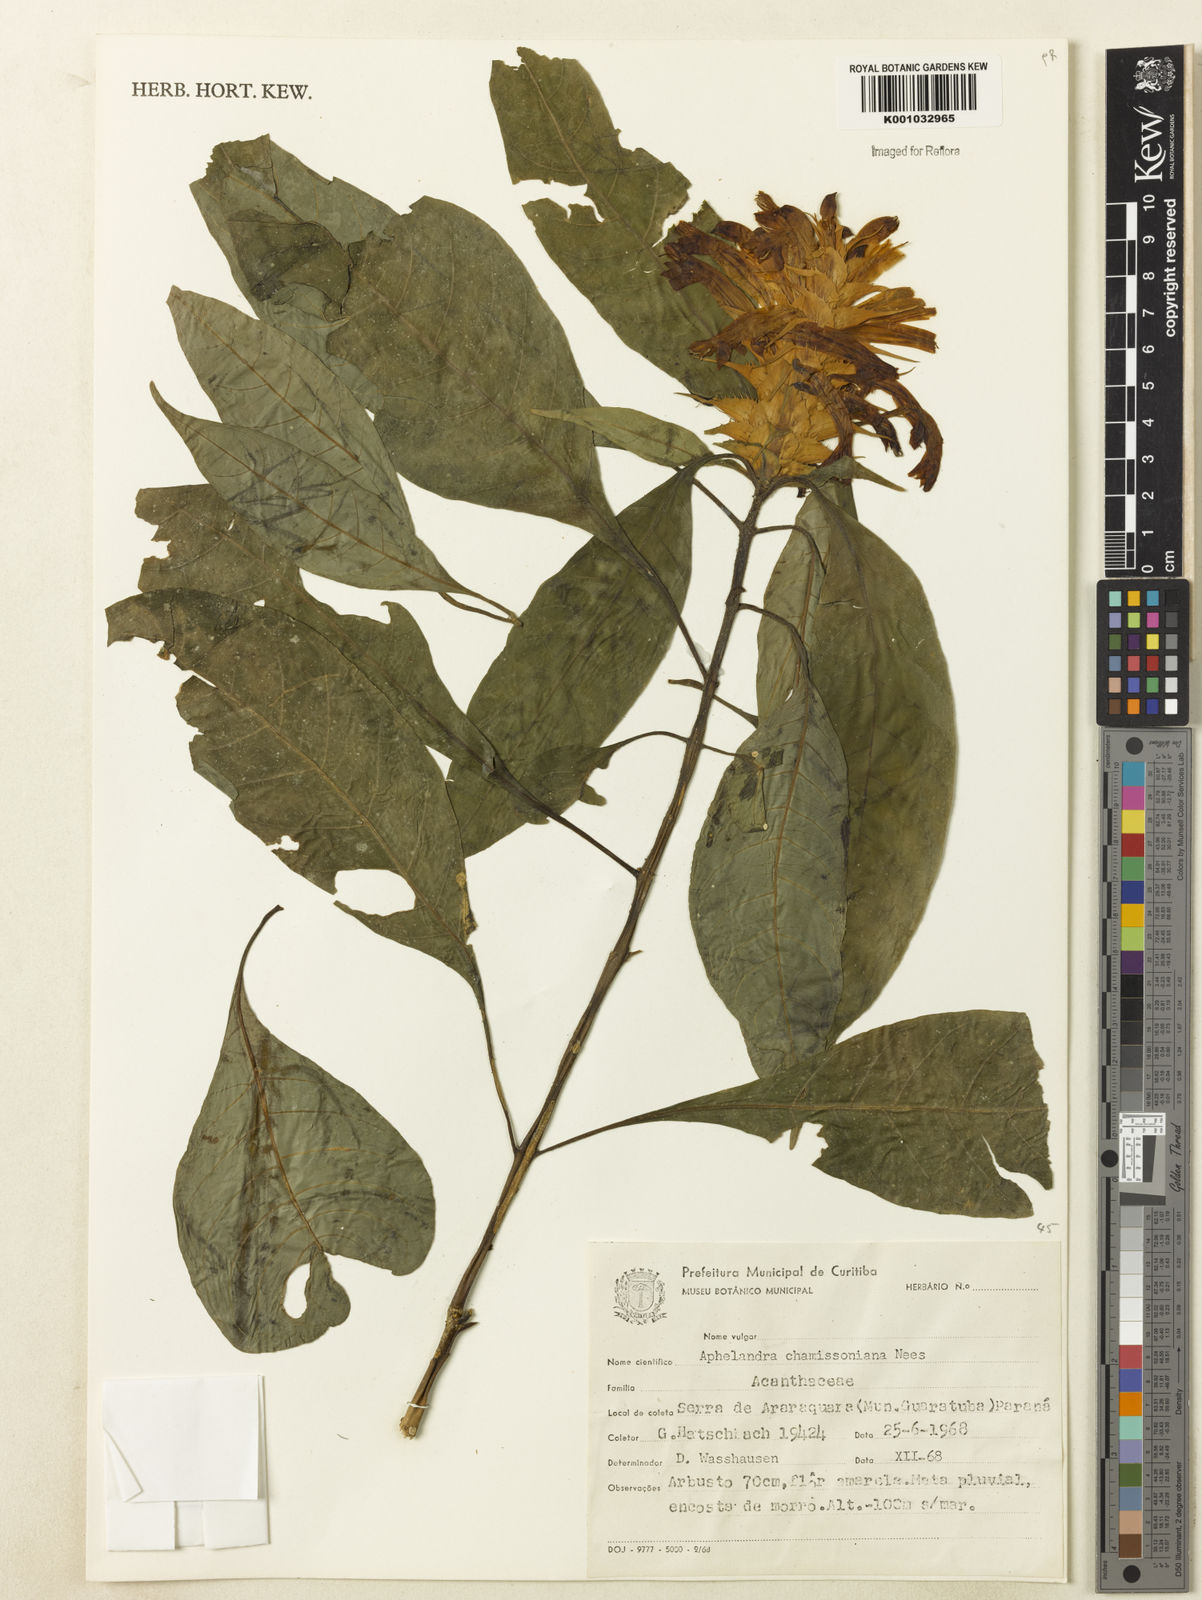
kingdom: Plantae
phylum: Tracheophyta
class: Magnoliopsida
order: Lamiales
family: Acanthaceae
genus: Aphelandra
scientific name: Aphelandra chamissoniana
